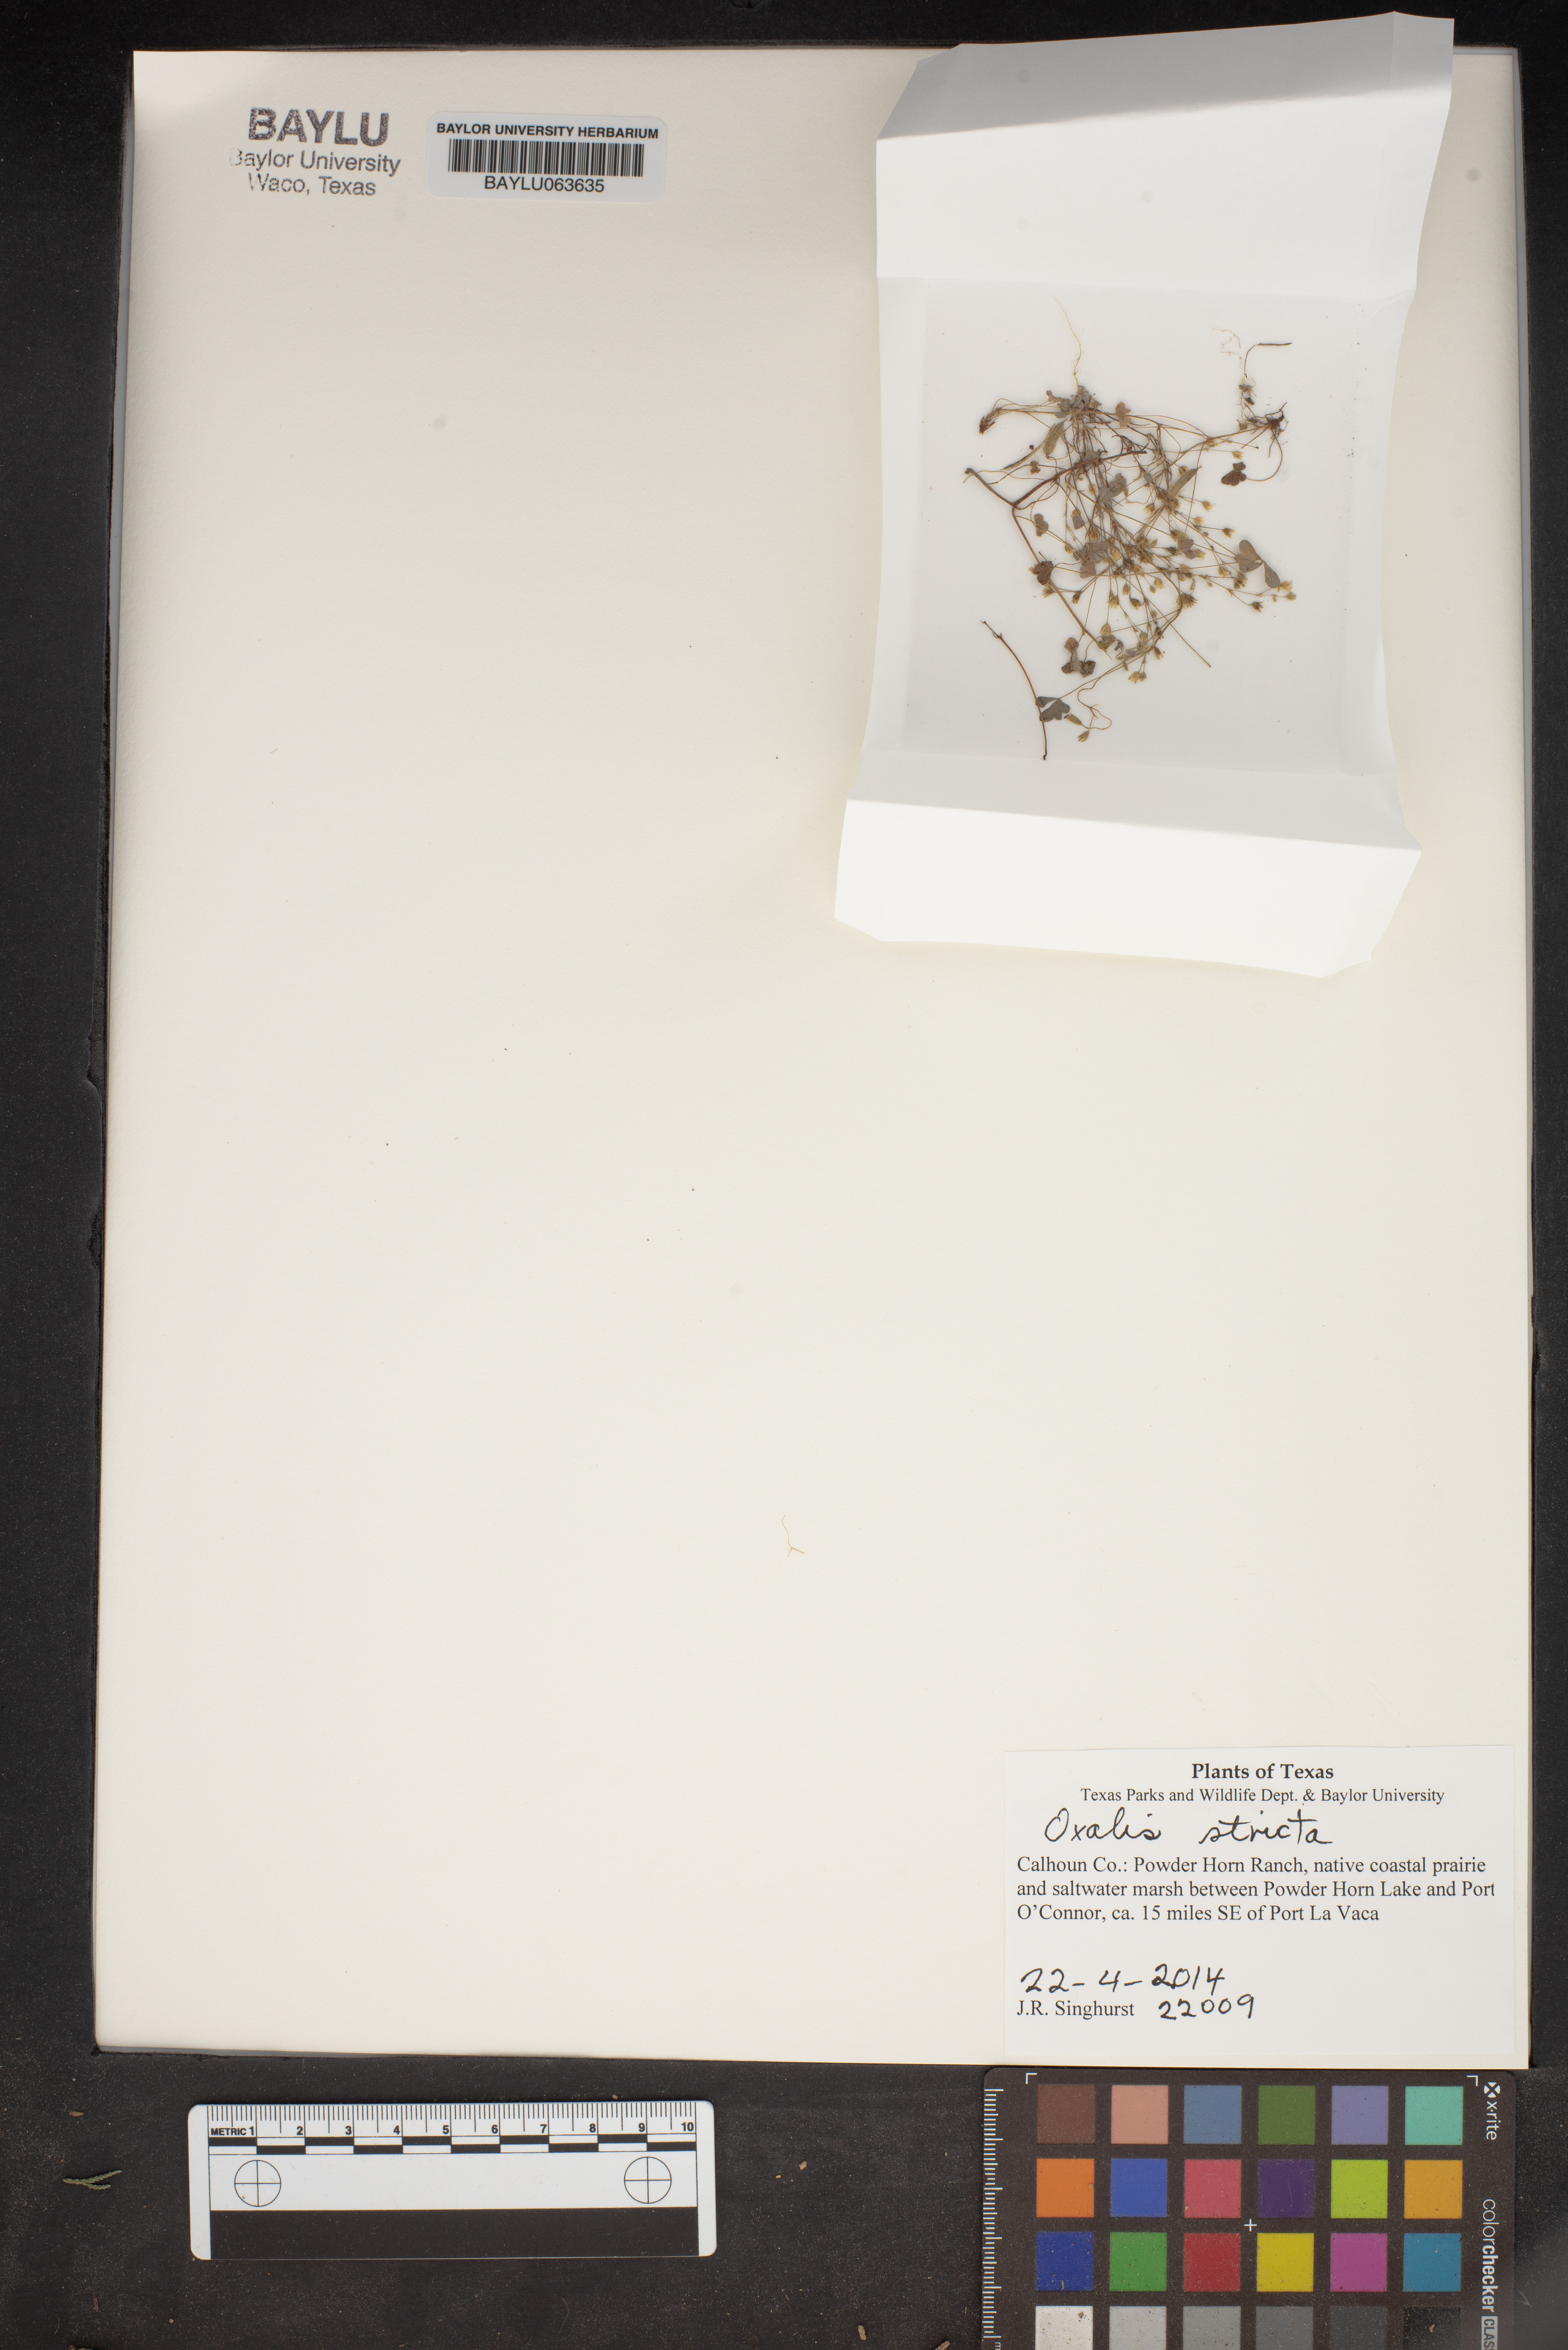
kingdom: Plantae
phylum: Tracheophyta
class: Magnoliopsida
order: Oxalidales
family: Oxalidaceae
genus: Oxalis
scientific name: Oxalis stricta
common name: Upright yellow-sorrel
